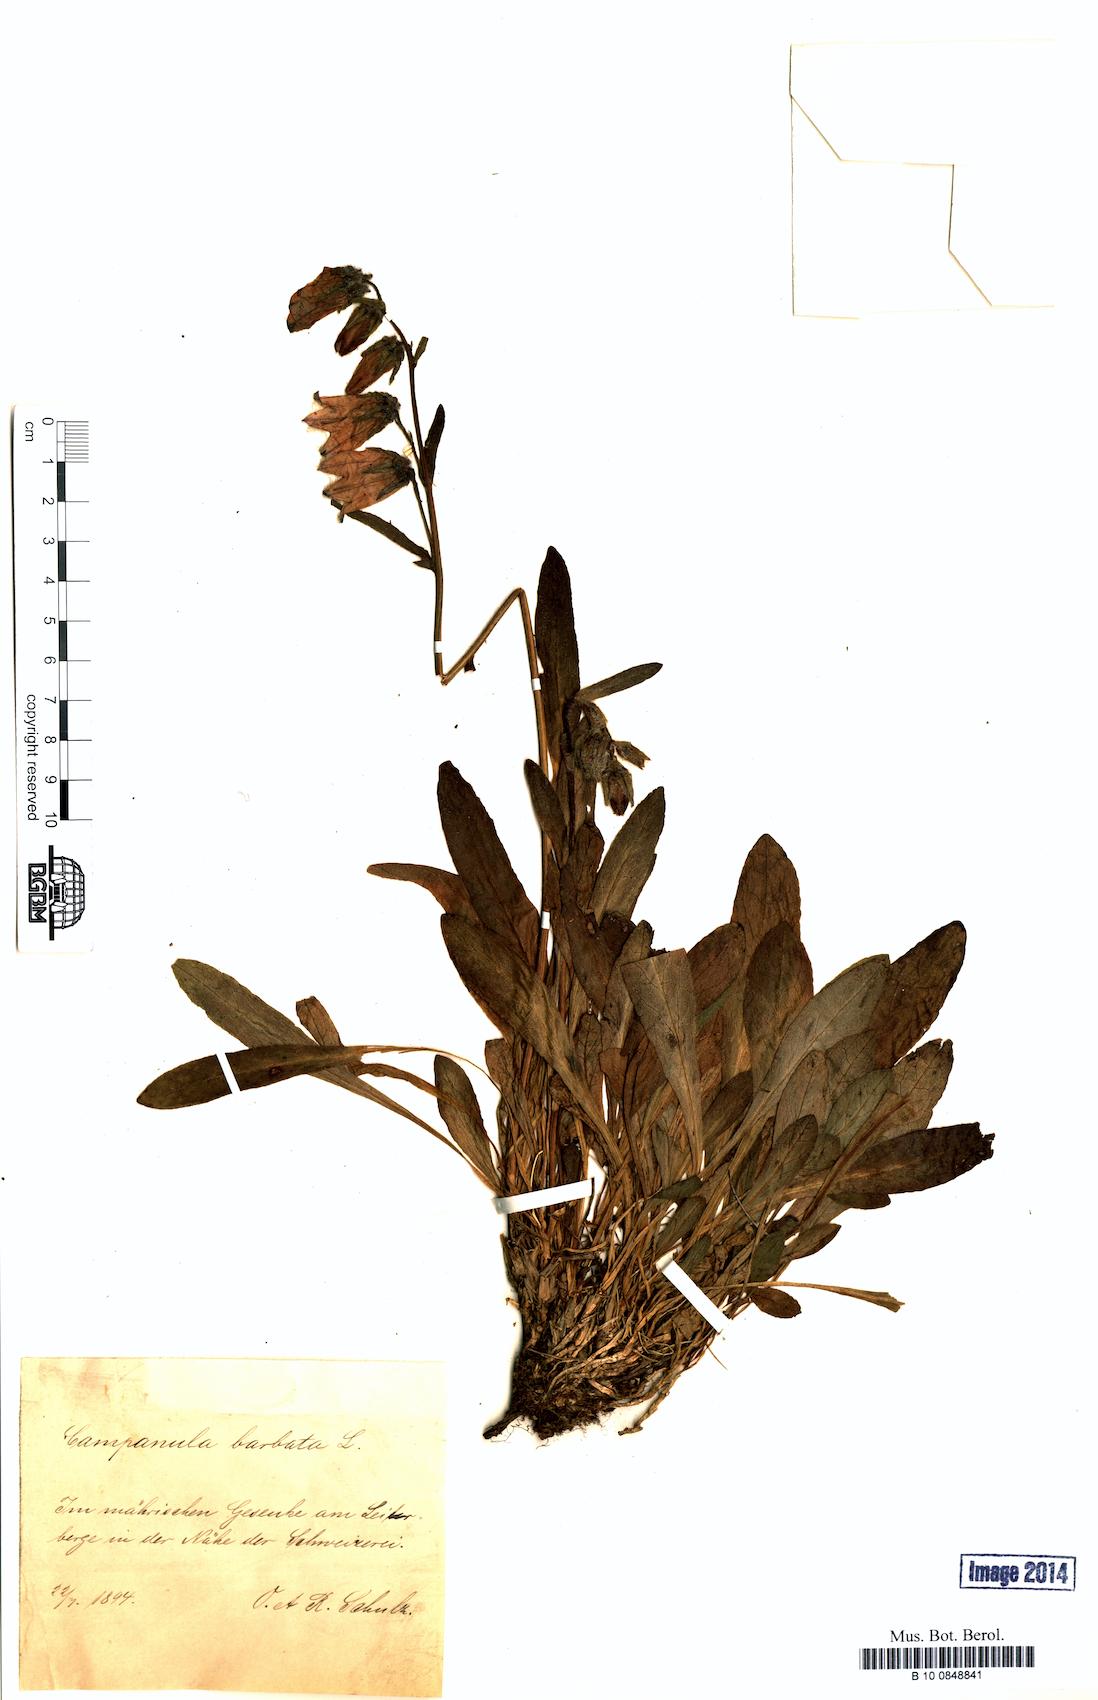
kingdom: Plantae
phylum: Tracheophyta
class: Magnoliopsida
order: Asterales
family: Campanulaceae
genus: Campanula
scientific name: Campanula barbata
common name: Bearded bellflower
